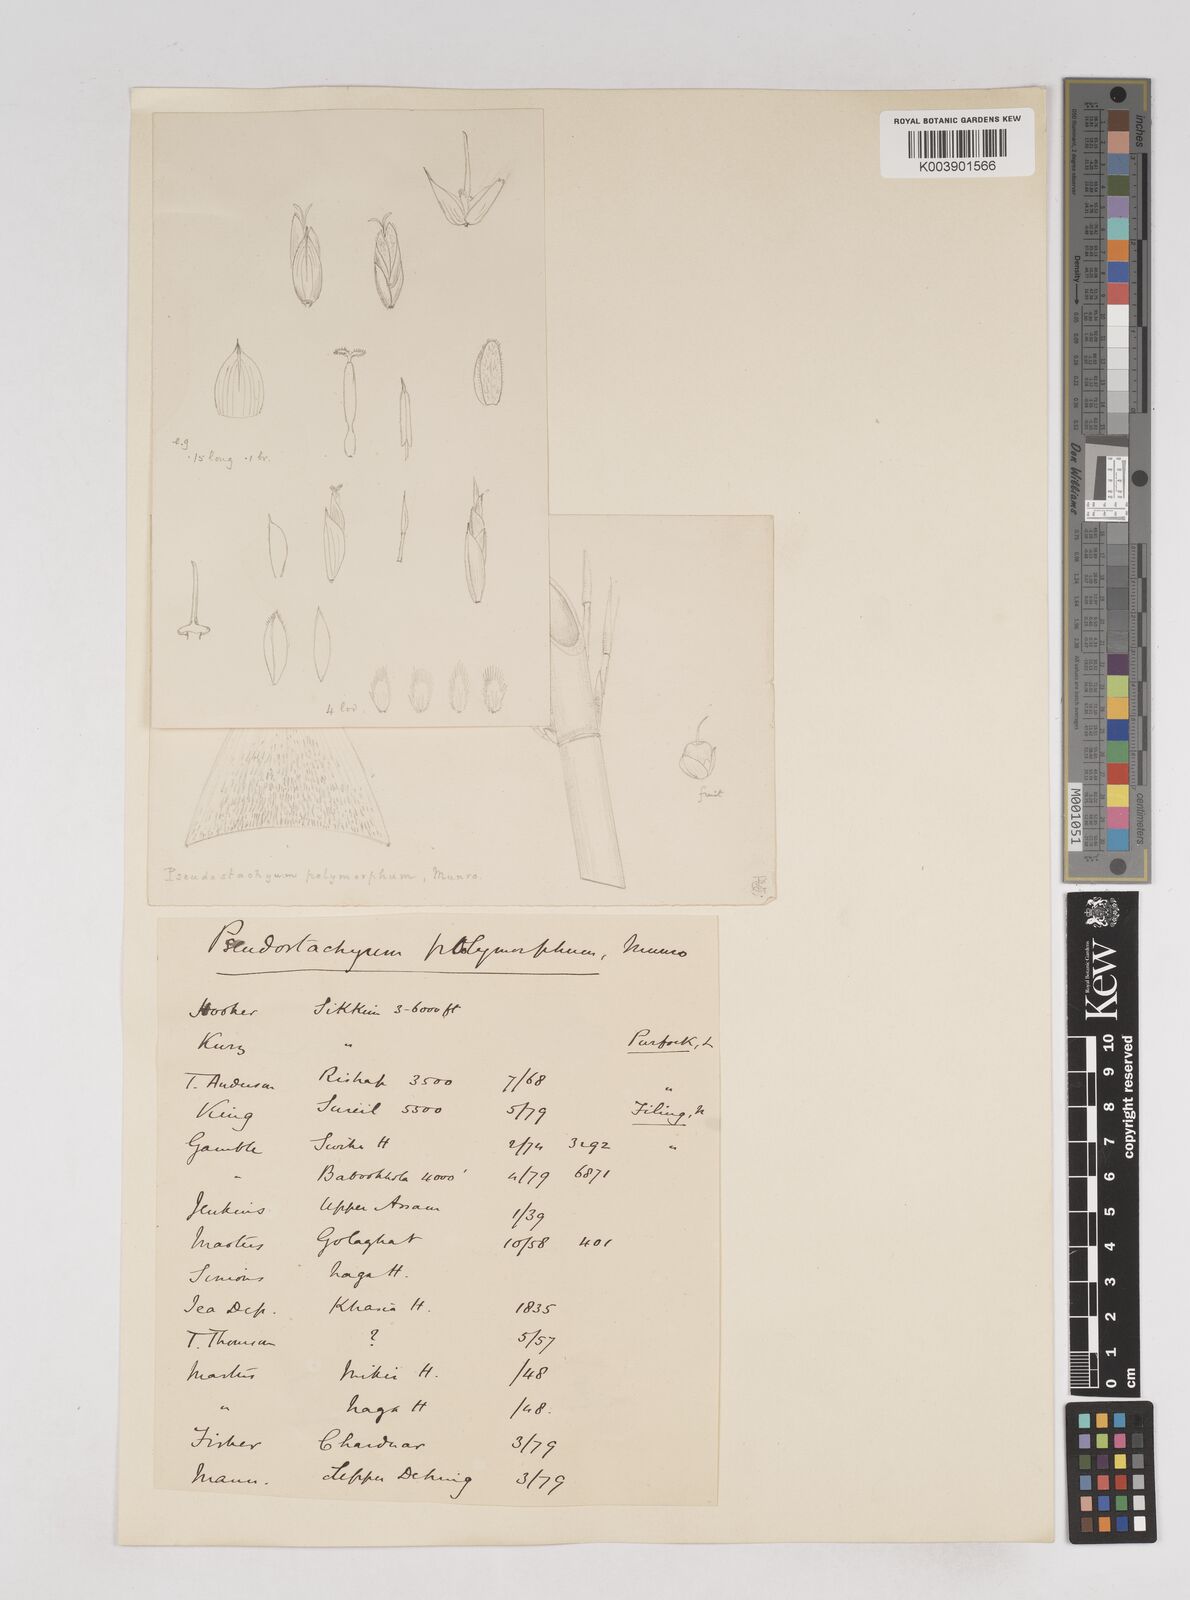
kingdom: Plantae
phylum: Tracheophyta
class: Liliopsida
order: Poales
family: Poaceae
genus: Pseudostachyum
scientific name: Pseudostachyum polymorphum
